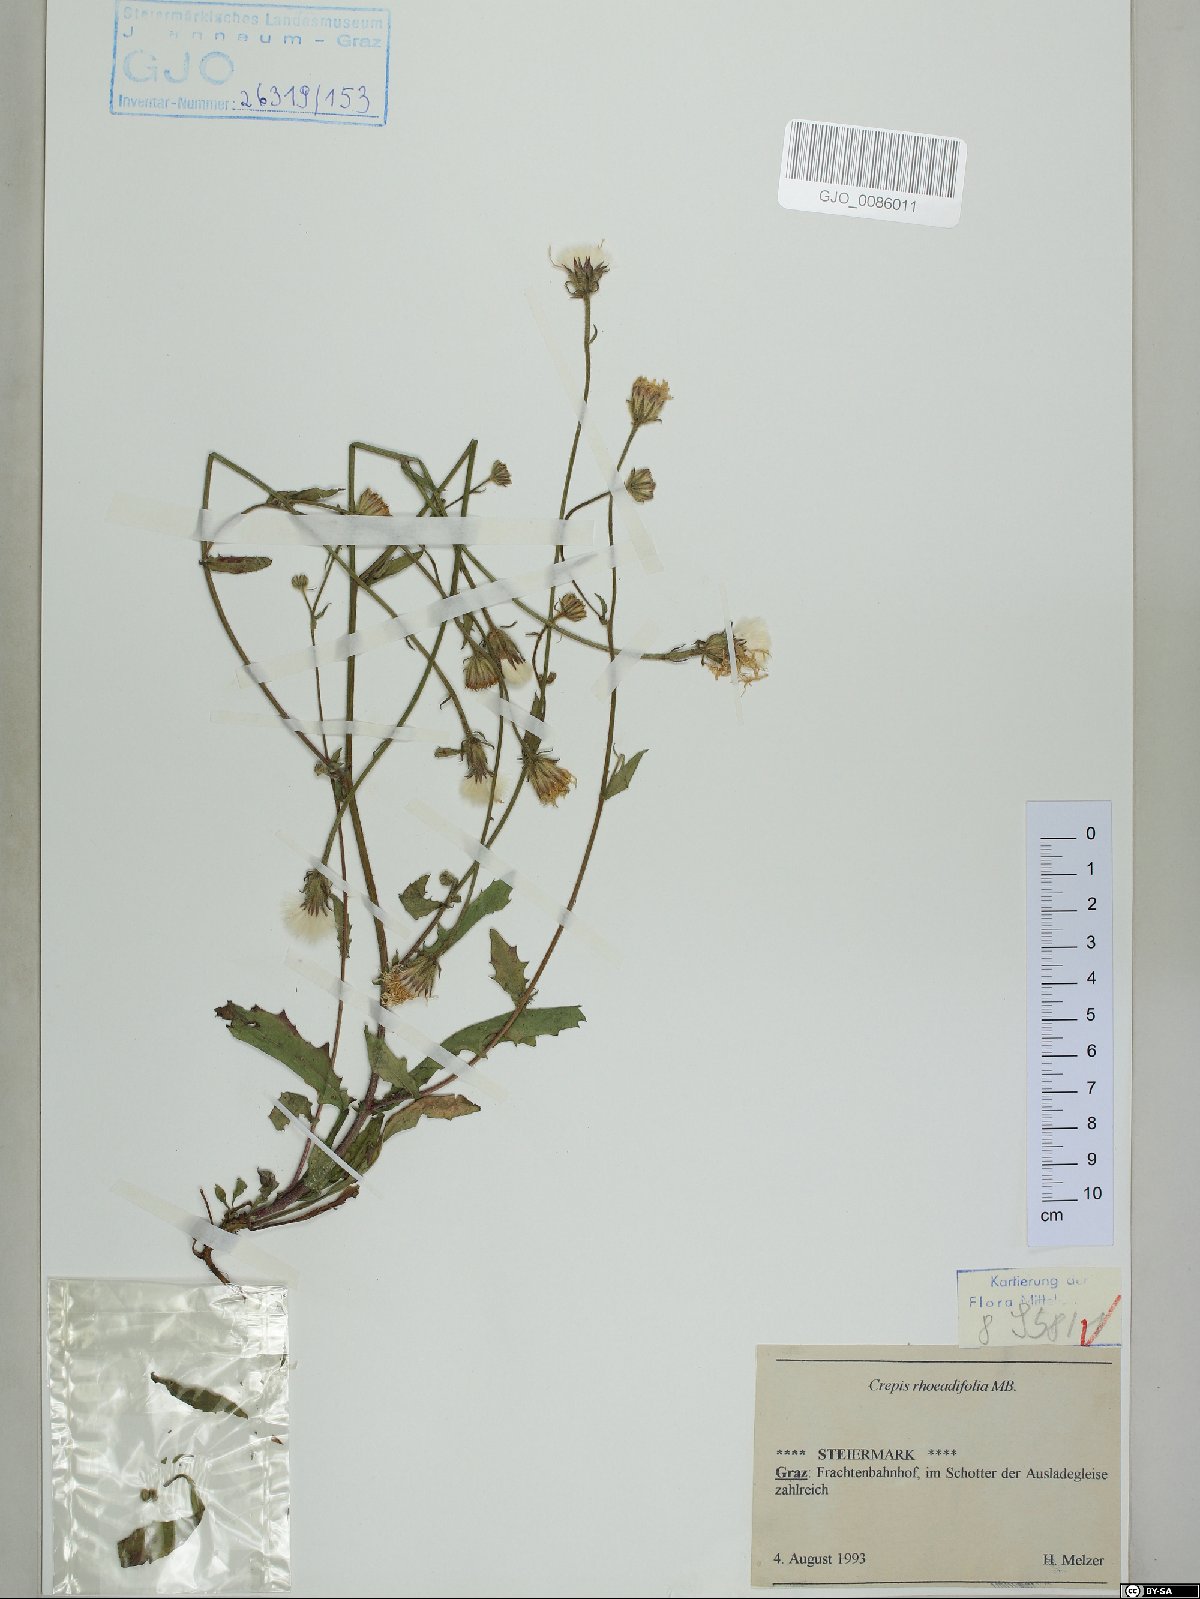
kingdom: Plantae
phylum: Tracheophyta
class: Magnoliopsida
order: Asterales
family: Asteraceae
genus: Crepis
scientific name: Crepis foetida
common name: Stinking hawk's-beard
